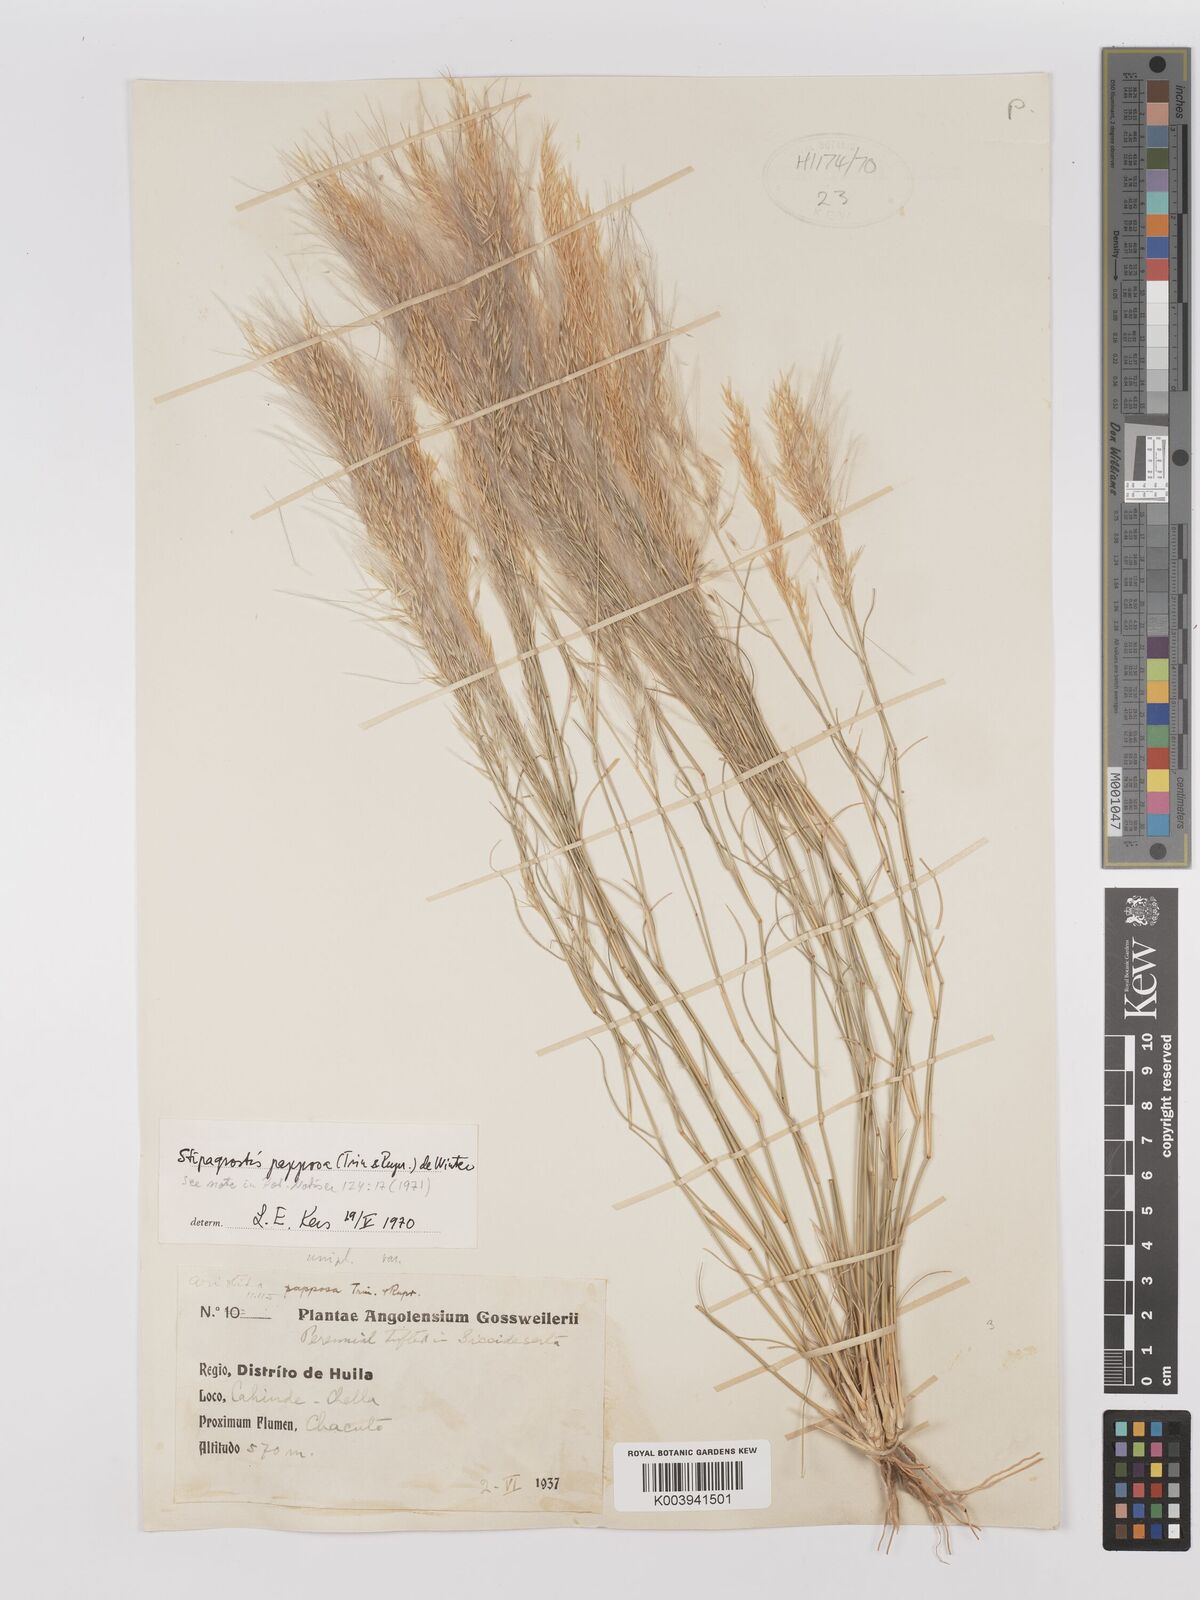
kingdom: Plantae
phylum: Tracheophyta
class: Liliopsida
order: Poales
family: Poaceae
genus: Stipagrostis
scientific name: Stipagrostis uniplumis
